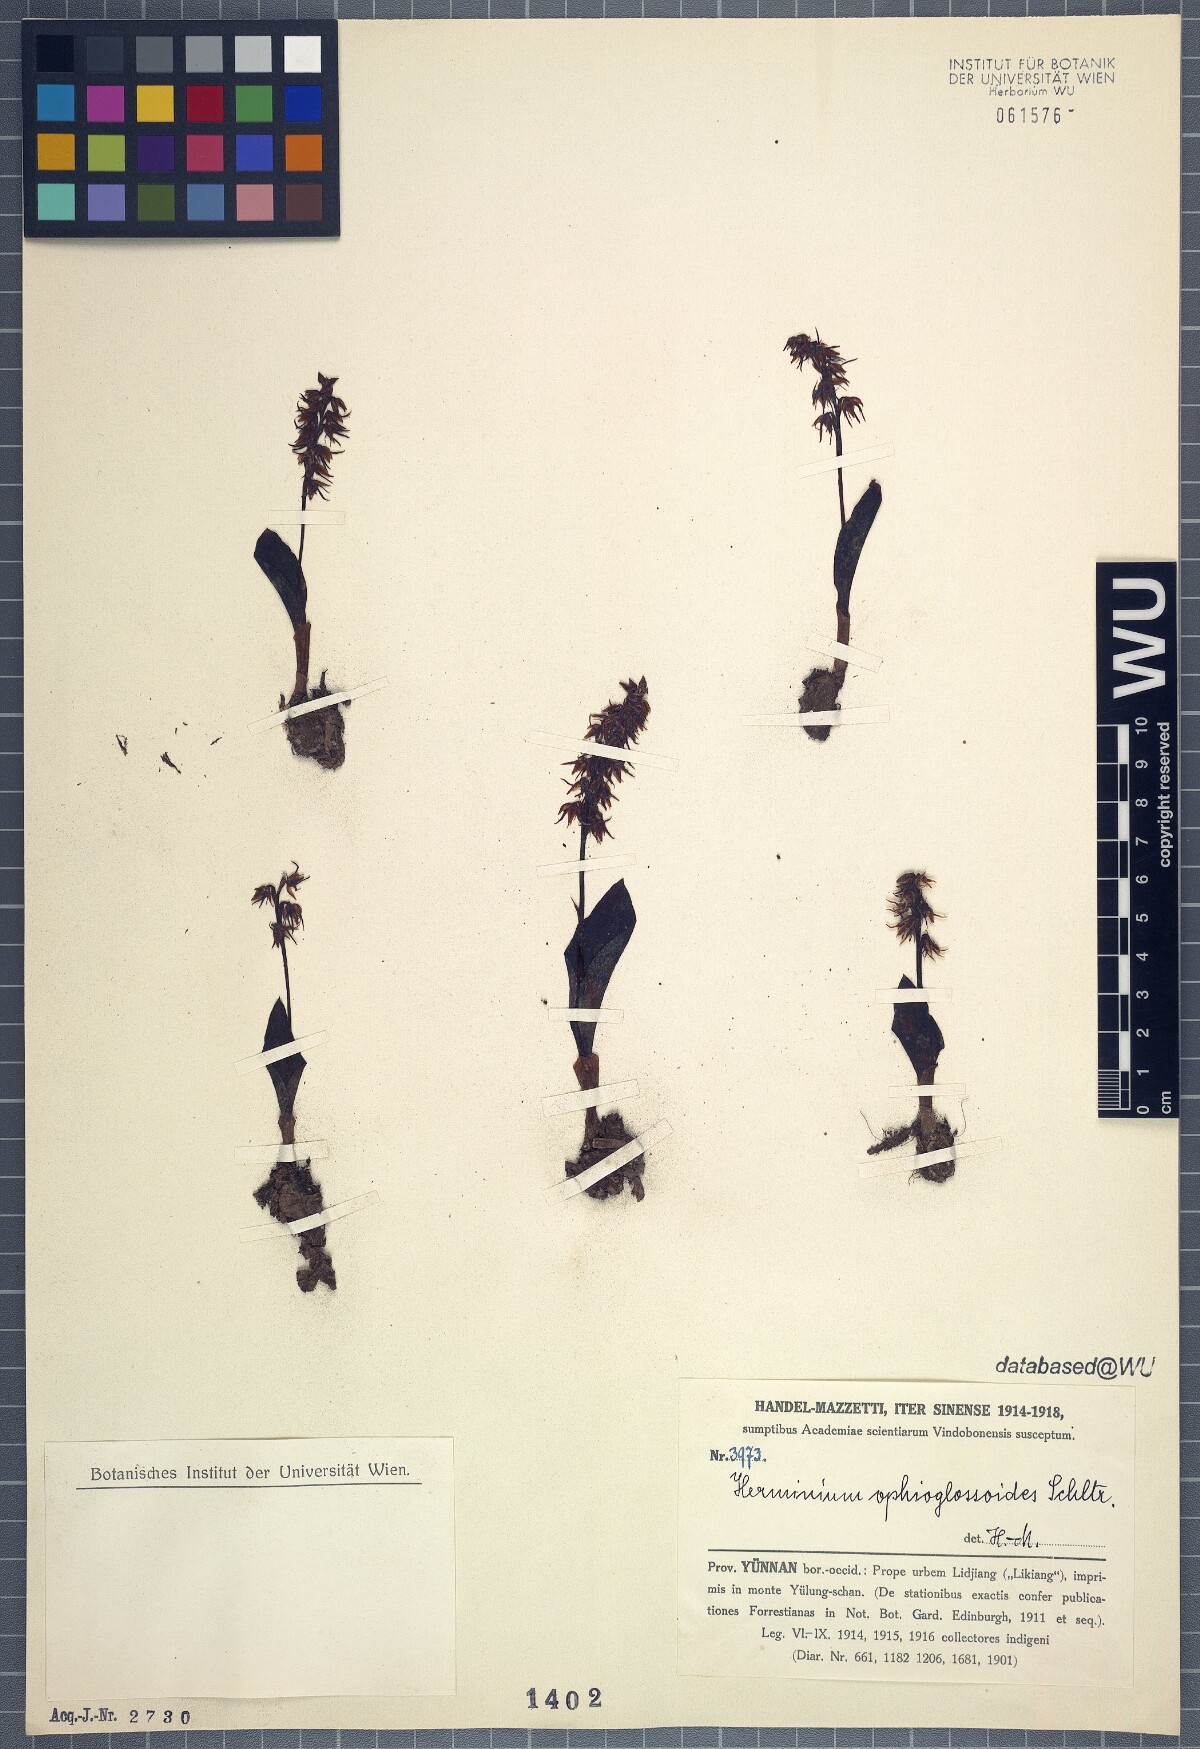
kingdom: Plantae
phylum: Tracheophyta
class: Liliopsida
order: Asparagales
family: Orchidaceae
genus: Herminium
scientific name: Herminium ophioglossoides
